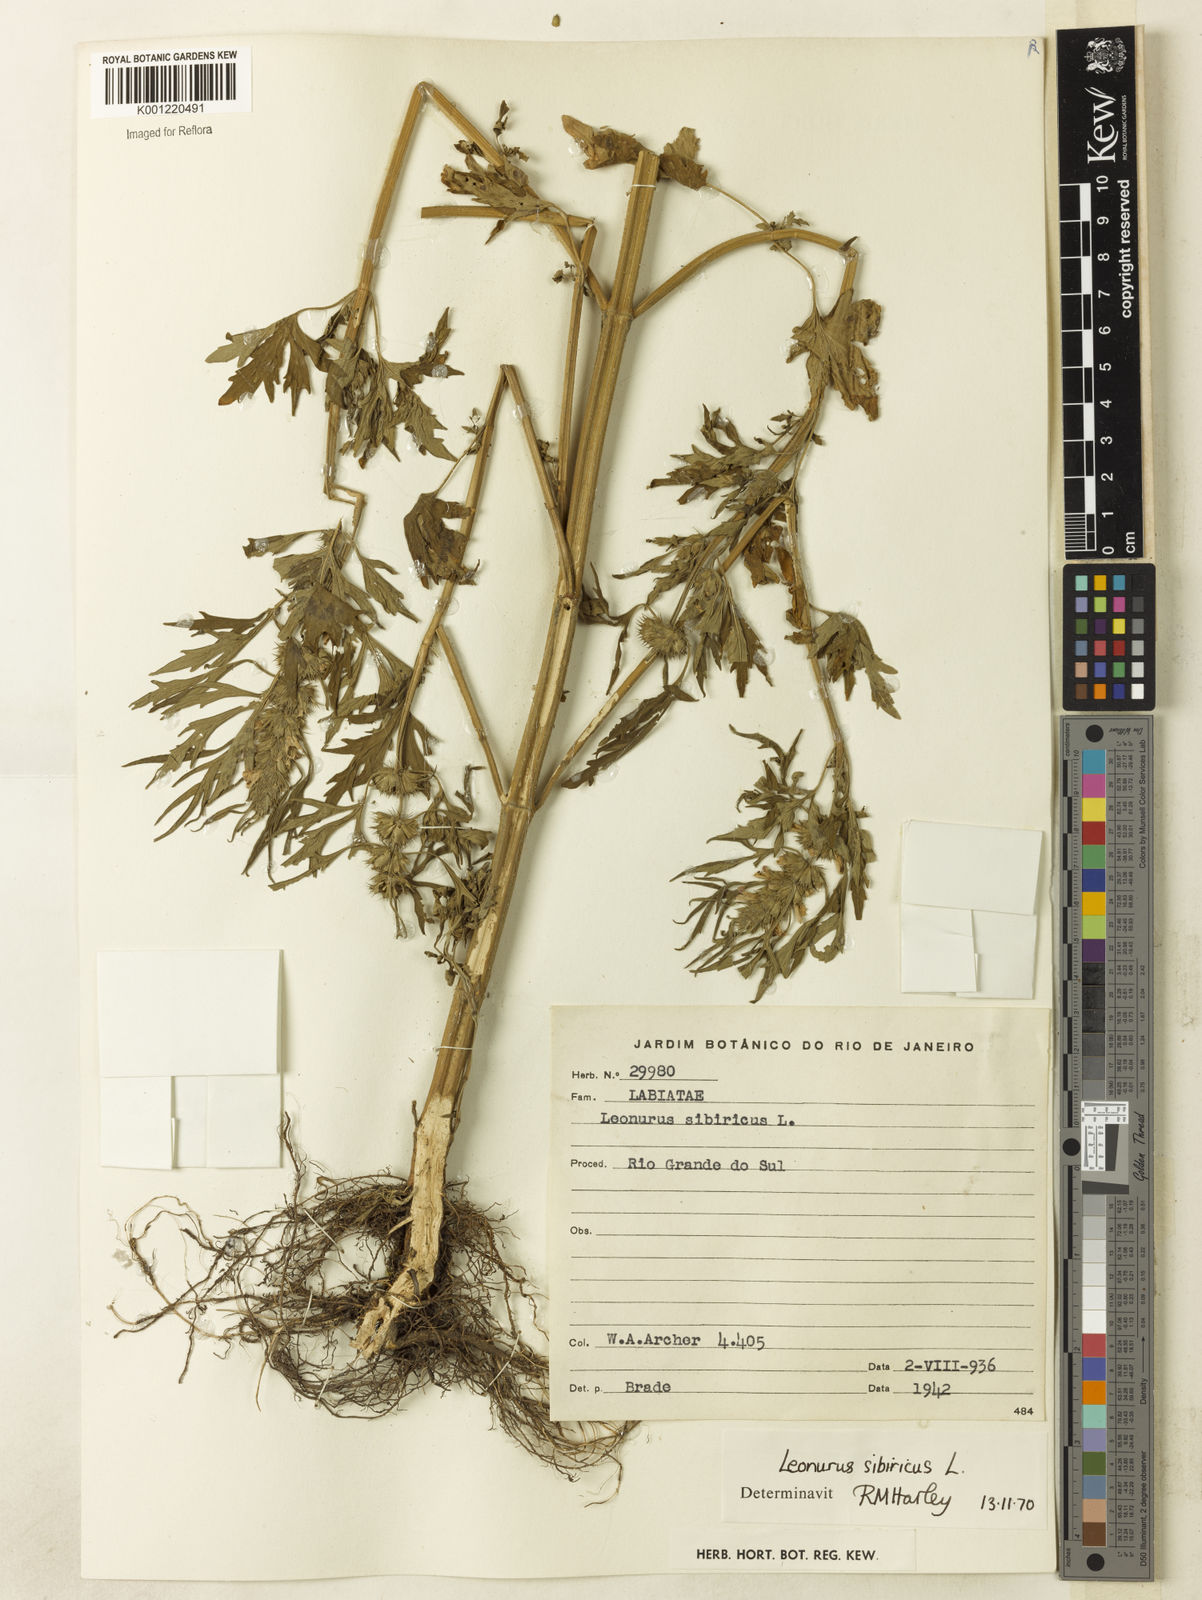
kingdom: Plantae
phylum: Tracheophyta
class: Magnoliopsida
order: Lamiales
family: Lamiaceae
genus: Leonurus
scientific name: Leonurus japonicus
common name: Honeyweed
